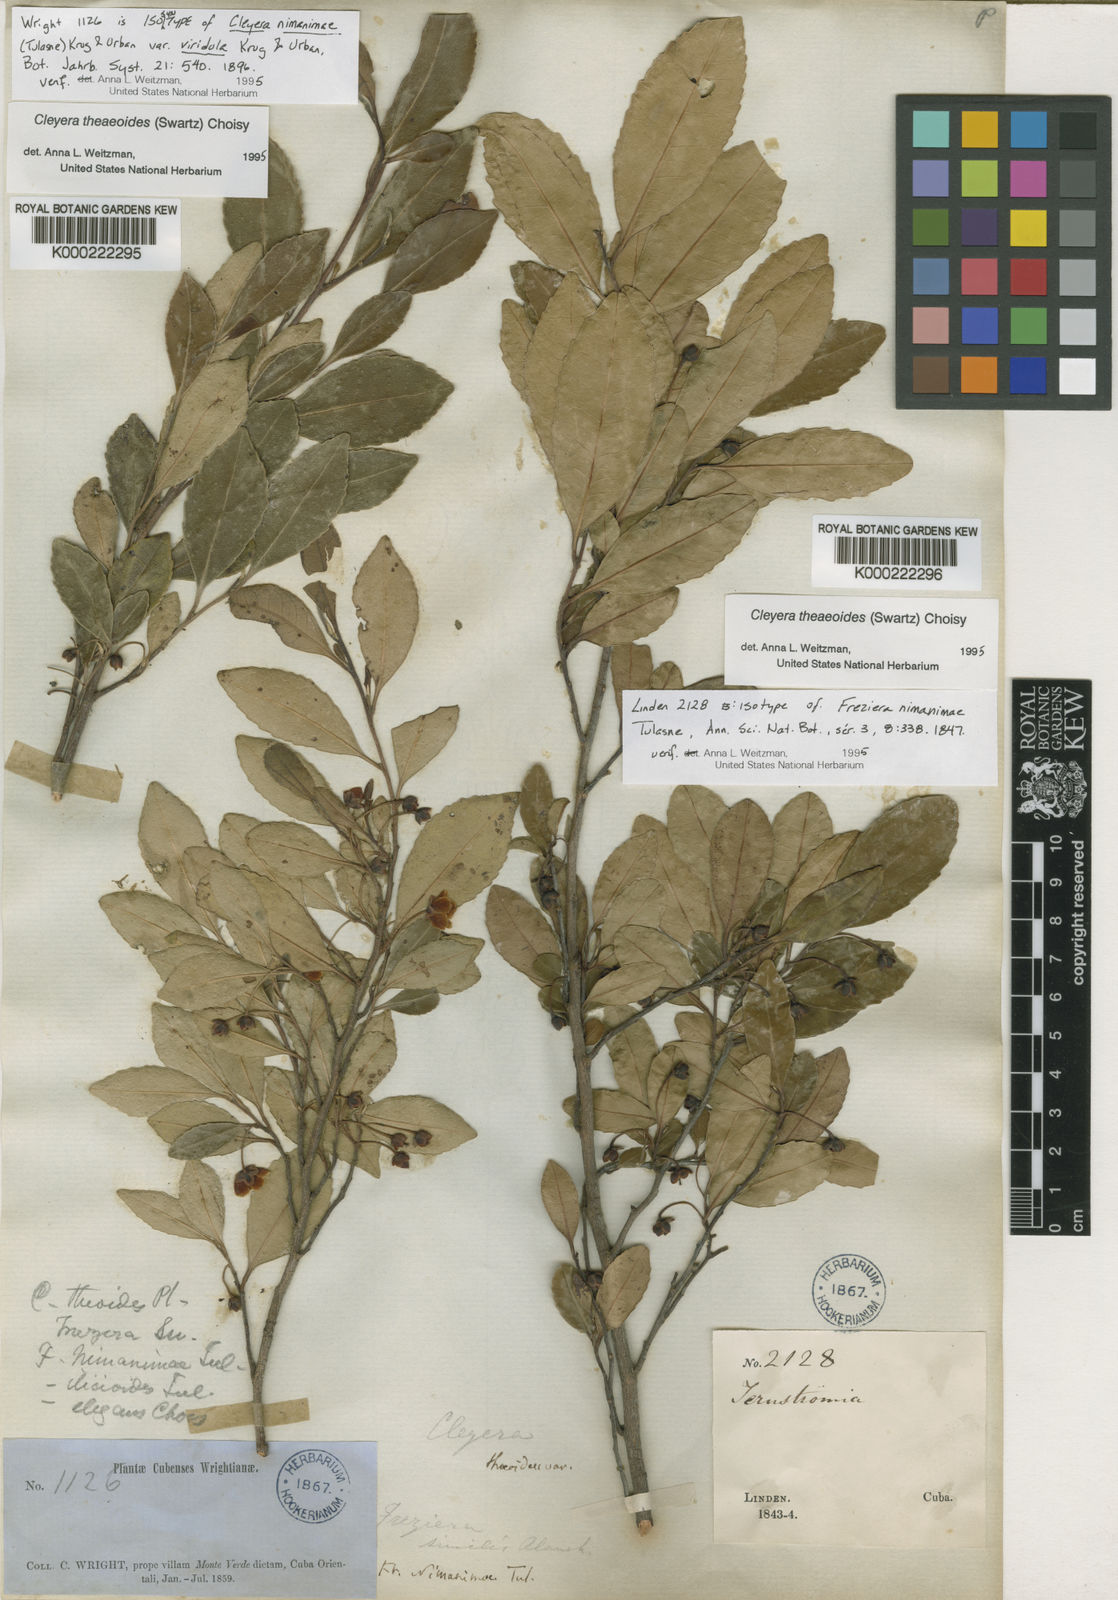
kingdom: Plantae
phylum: Tracheophyta
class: Magnoliopsida
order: Ericales
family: Pentaphylacaceae
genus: Cleyera
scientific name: Cleyera theaeoides
